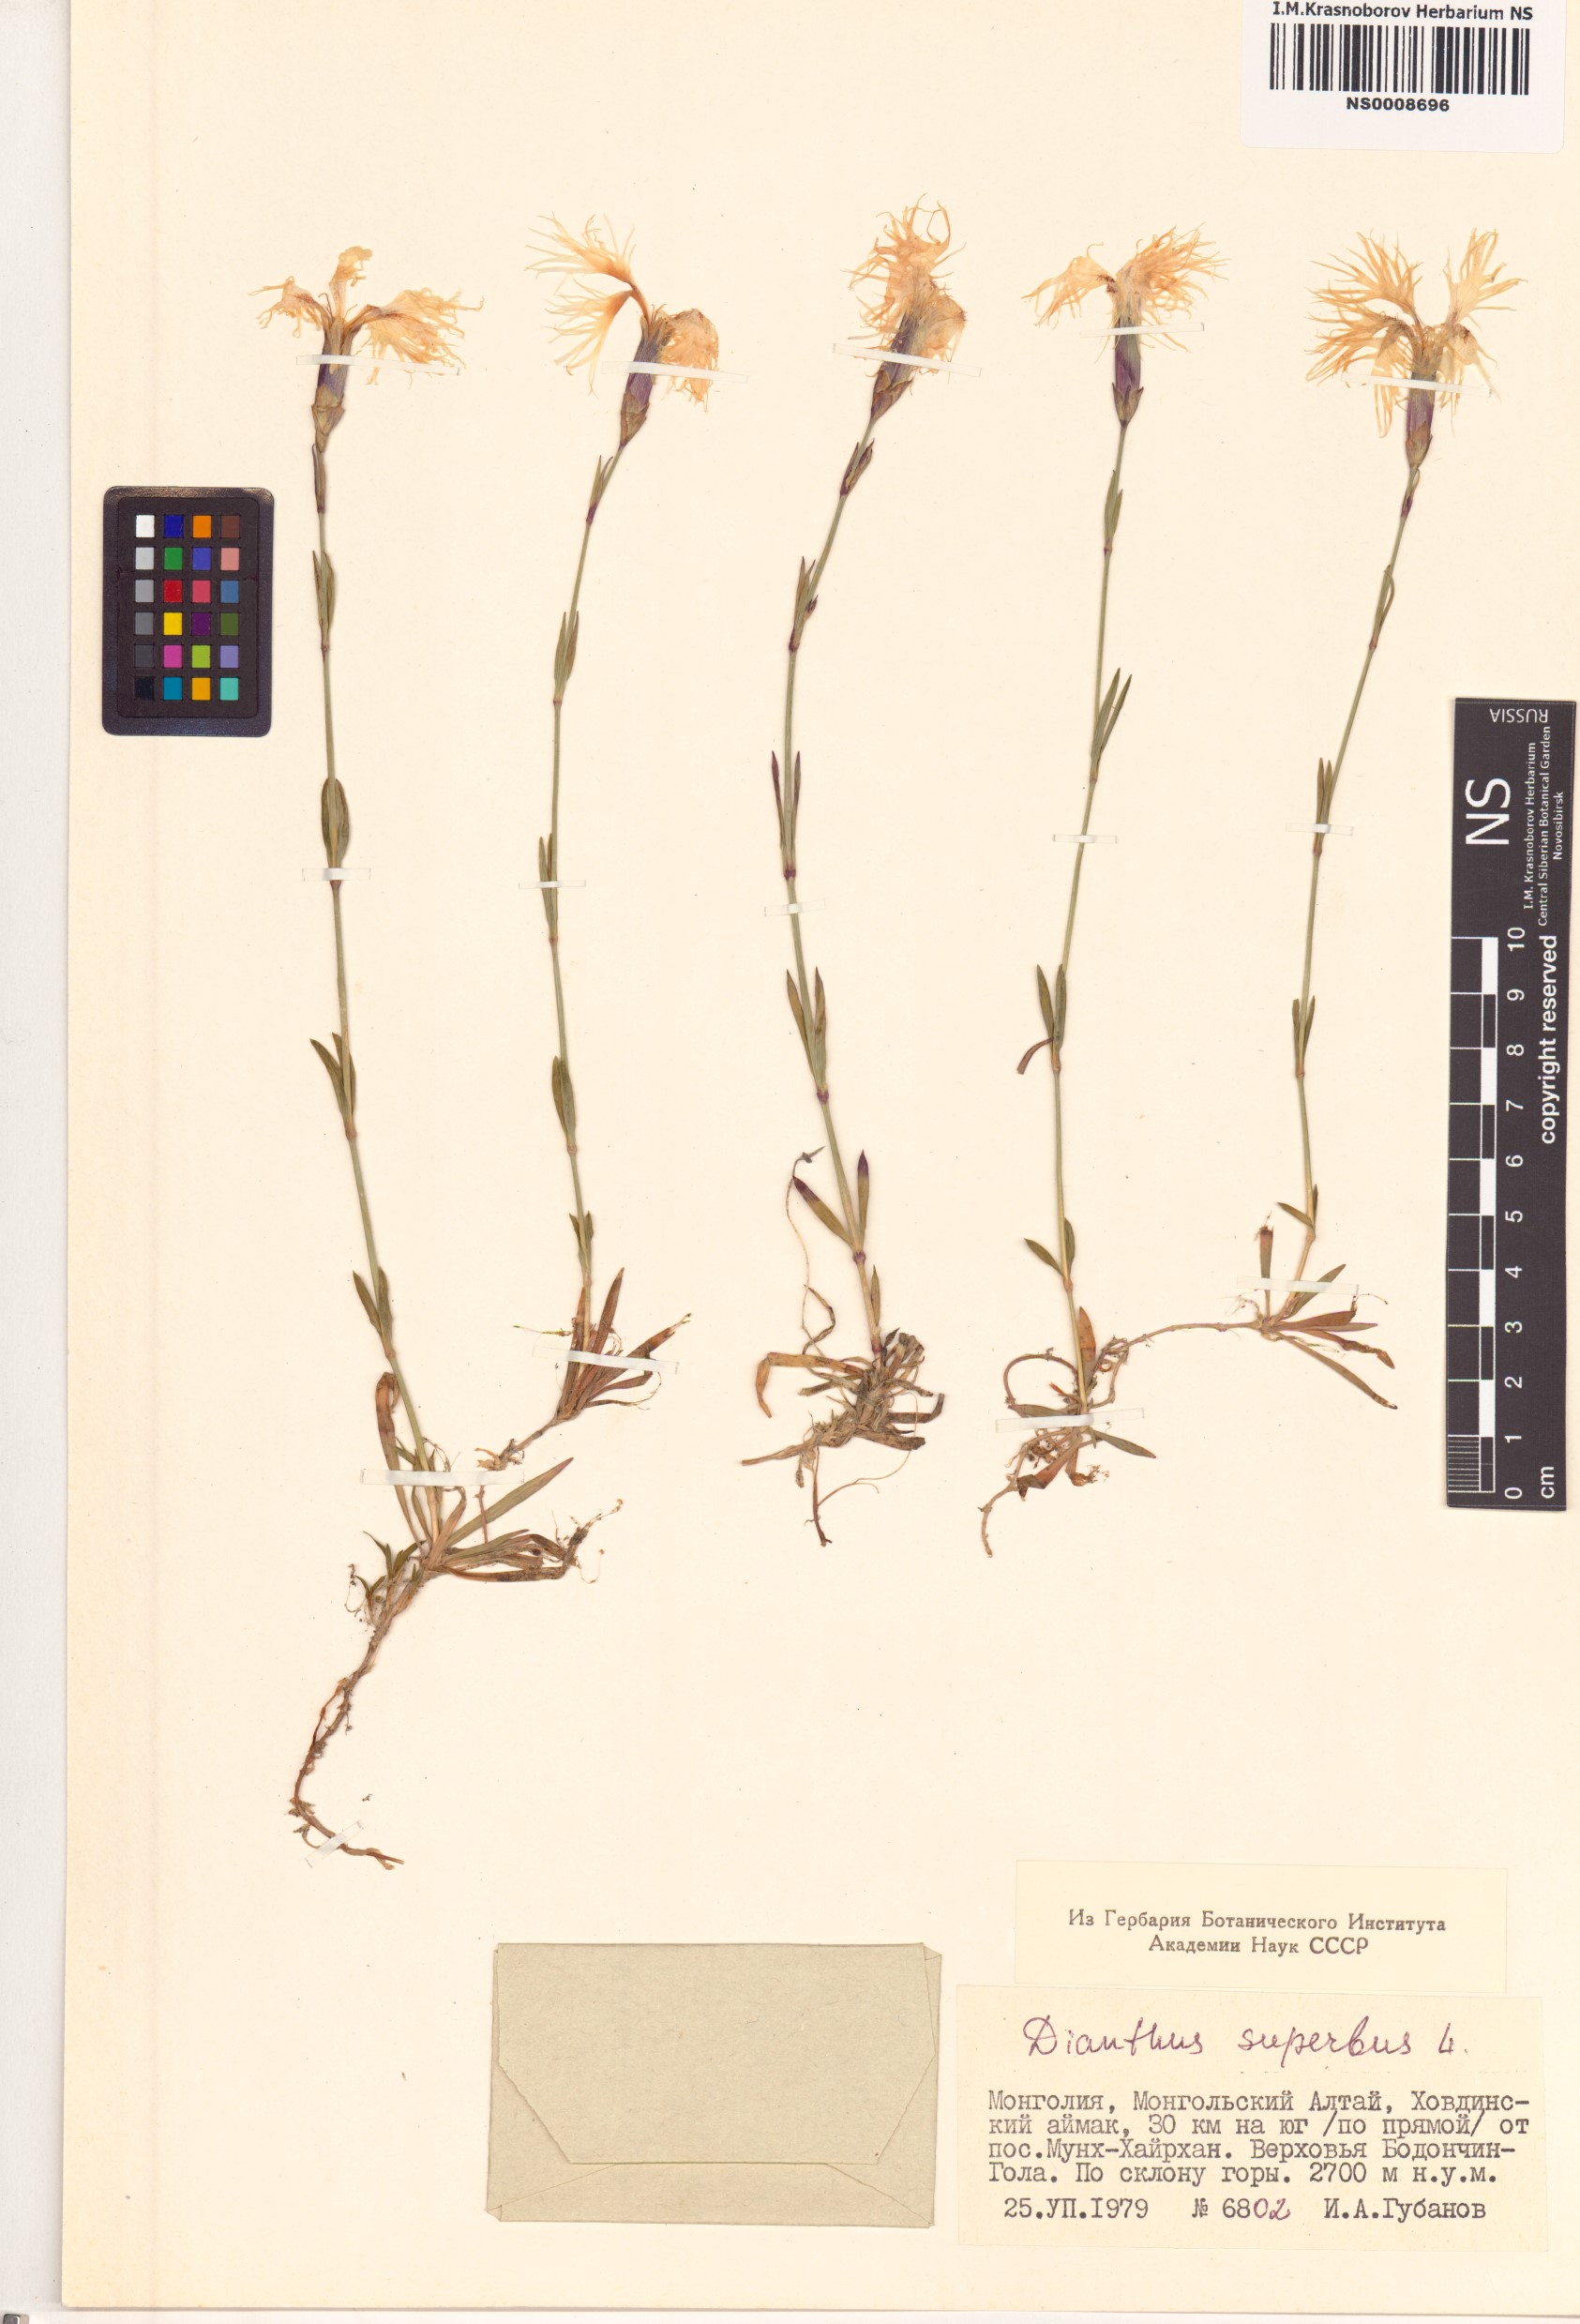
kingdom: Plantae
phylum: Tracheophyta
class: Magnoliopsida
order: Caryophyllales
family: Caryophyllaceae
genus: Dianthus
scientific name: Dianthus superbus
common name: Fringed pink
